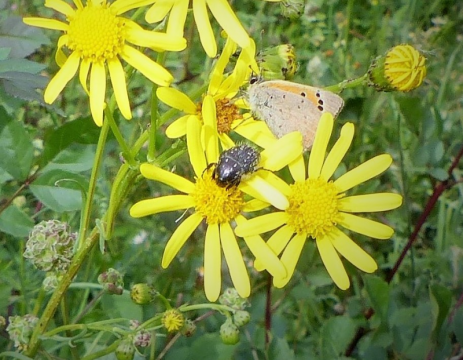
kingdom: Animalia
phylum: Arthropoda
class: Insecta
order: Lepidoptera
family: Lycaenidae
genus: Lycaena
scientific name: Lycaena phlaeas
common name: American Copper
